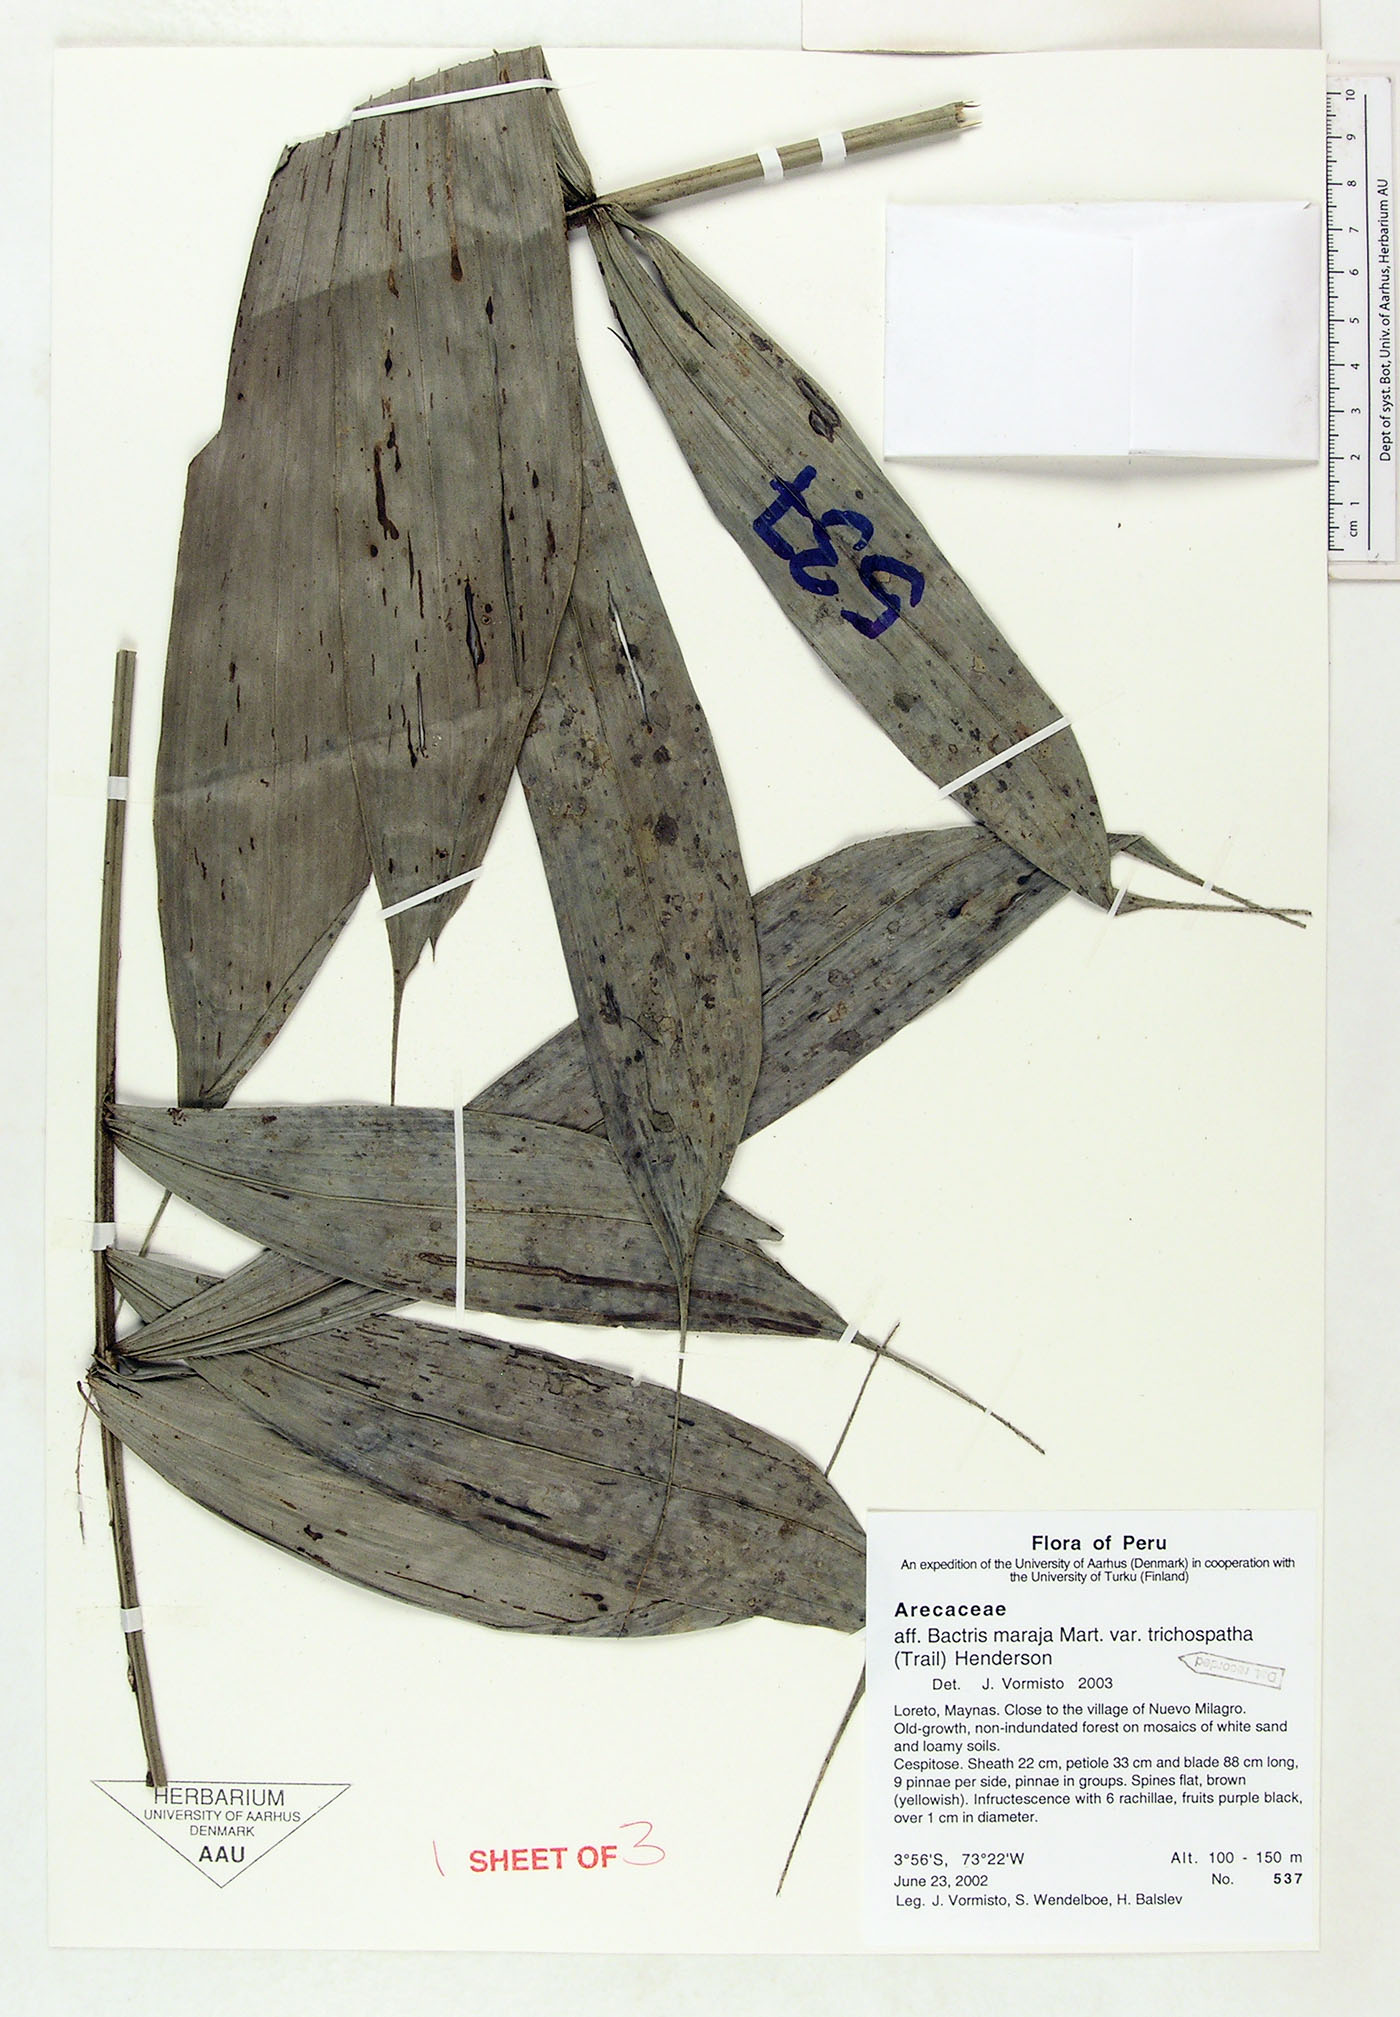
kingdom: Plantae
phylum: Tracheophyta
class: Liliopsida
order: Arecales
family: Arecaceae
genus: Bactris
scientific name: Bactris maraja
